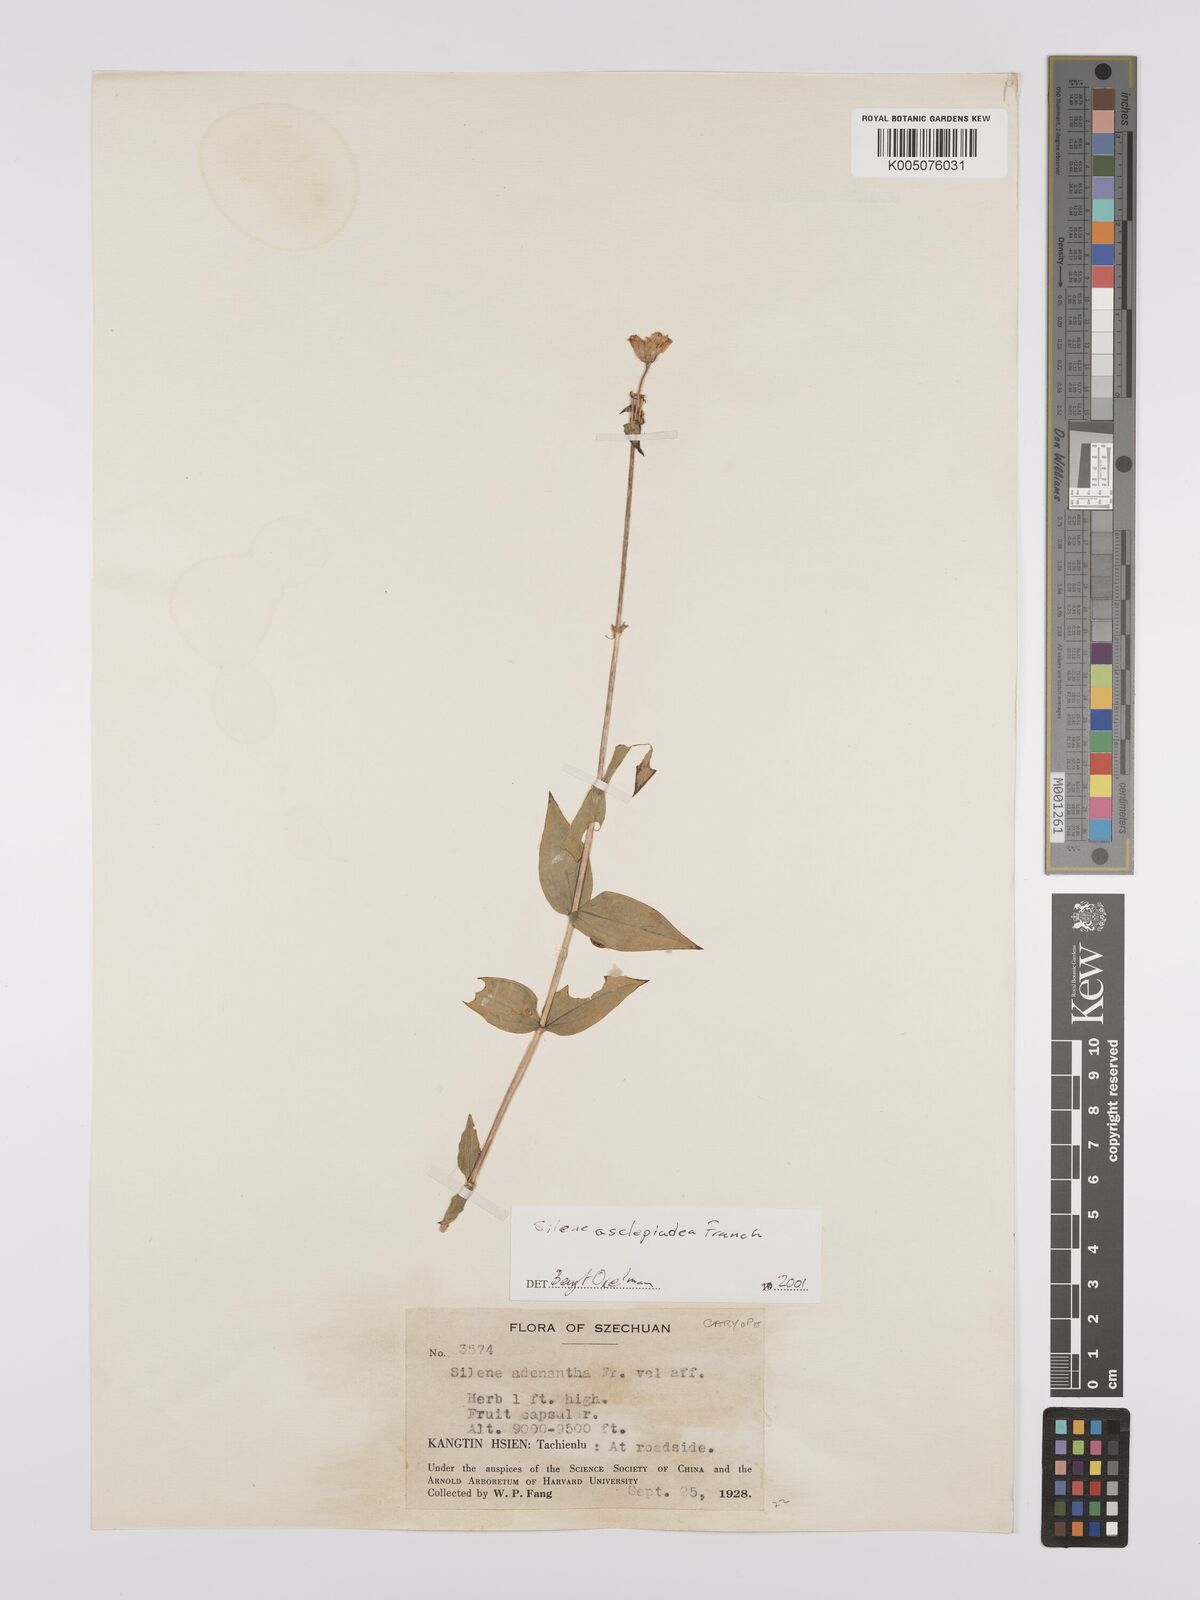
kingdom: Plantae
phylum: Tracheophyta
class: Magnoliopsida
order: Caryophyllales
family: Caryophyllaceae
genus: Silene
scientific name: Silene asclepiadea
